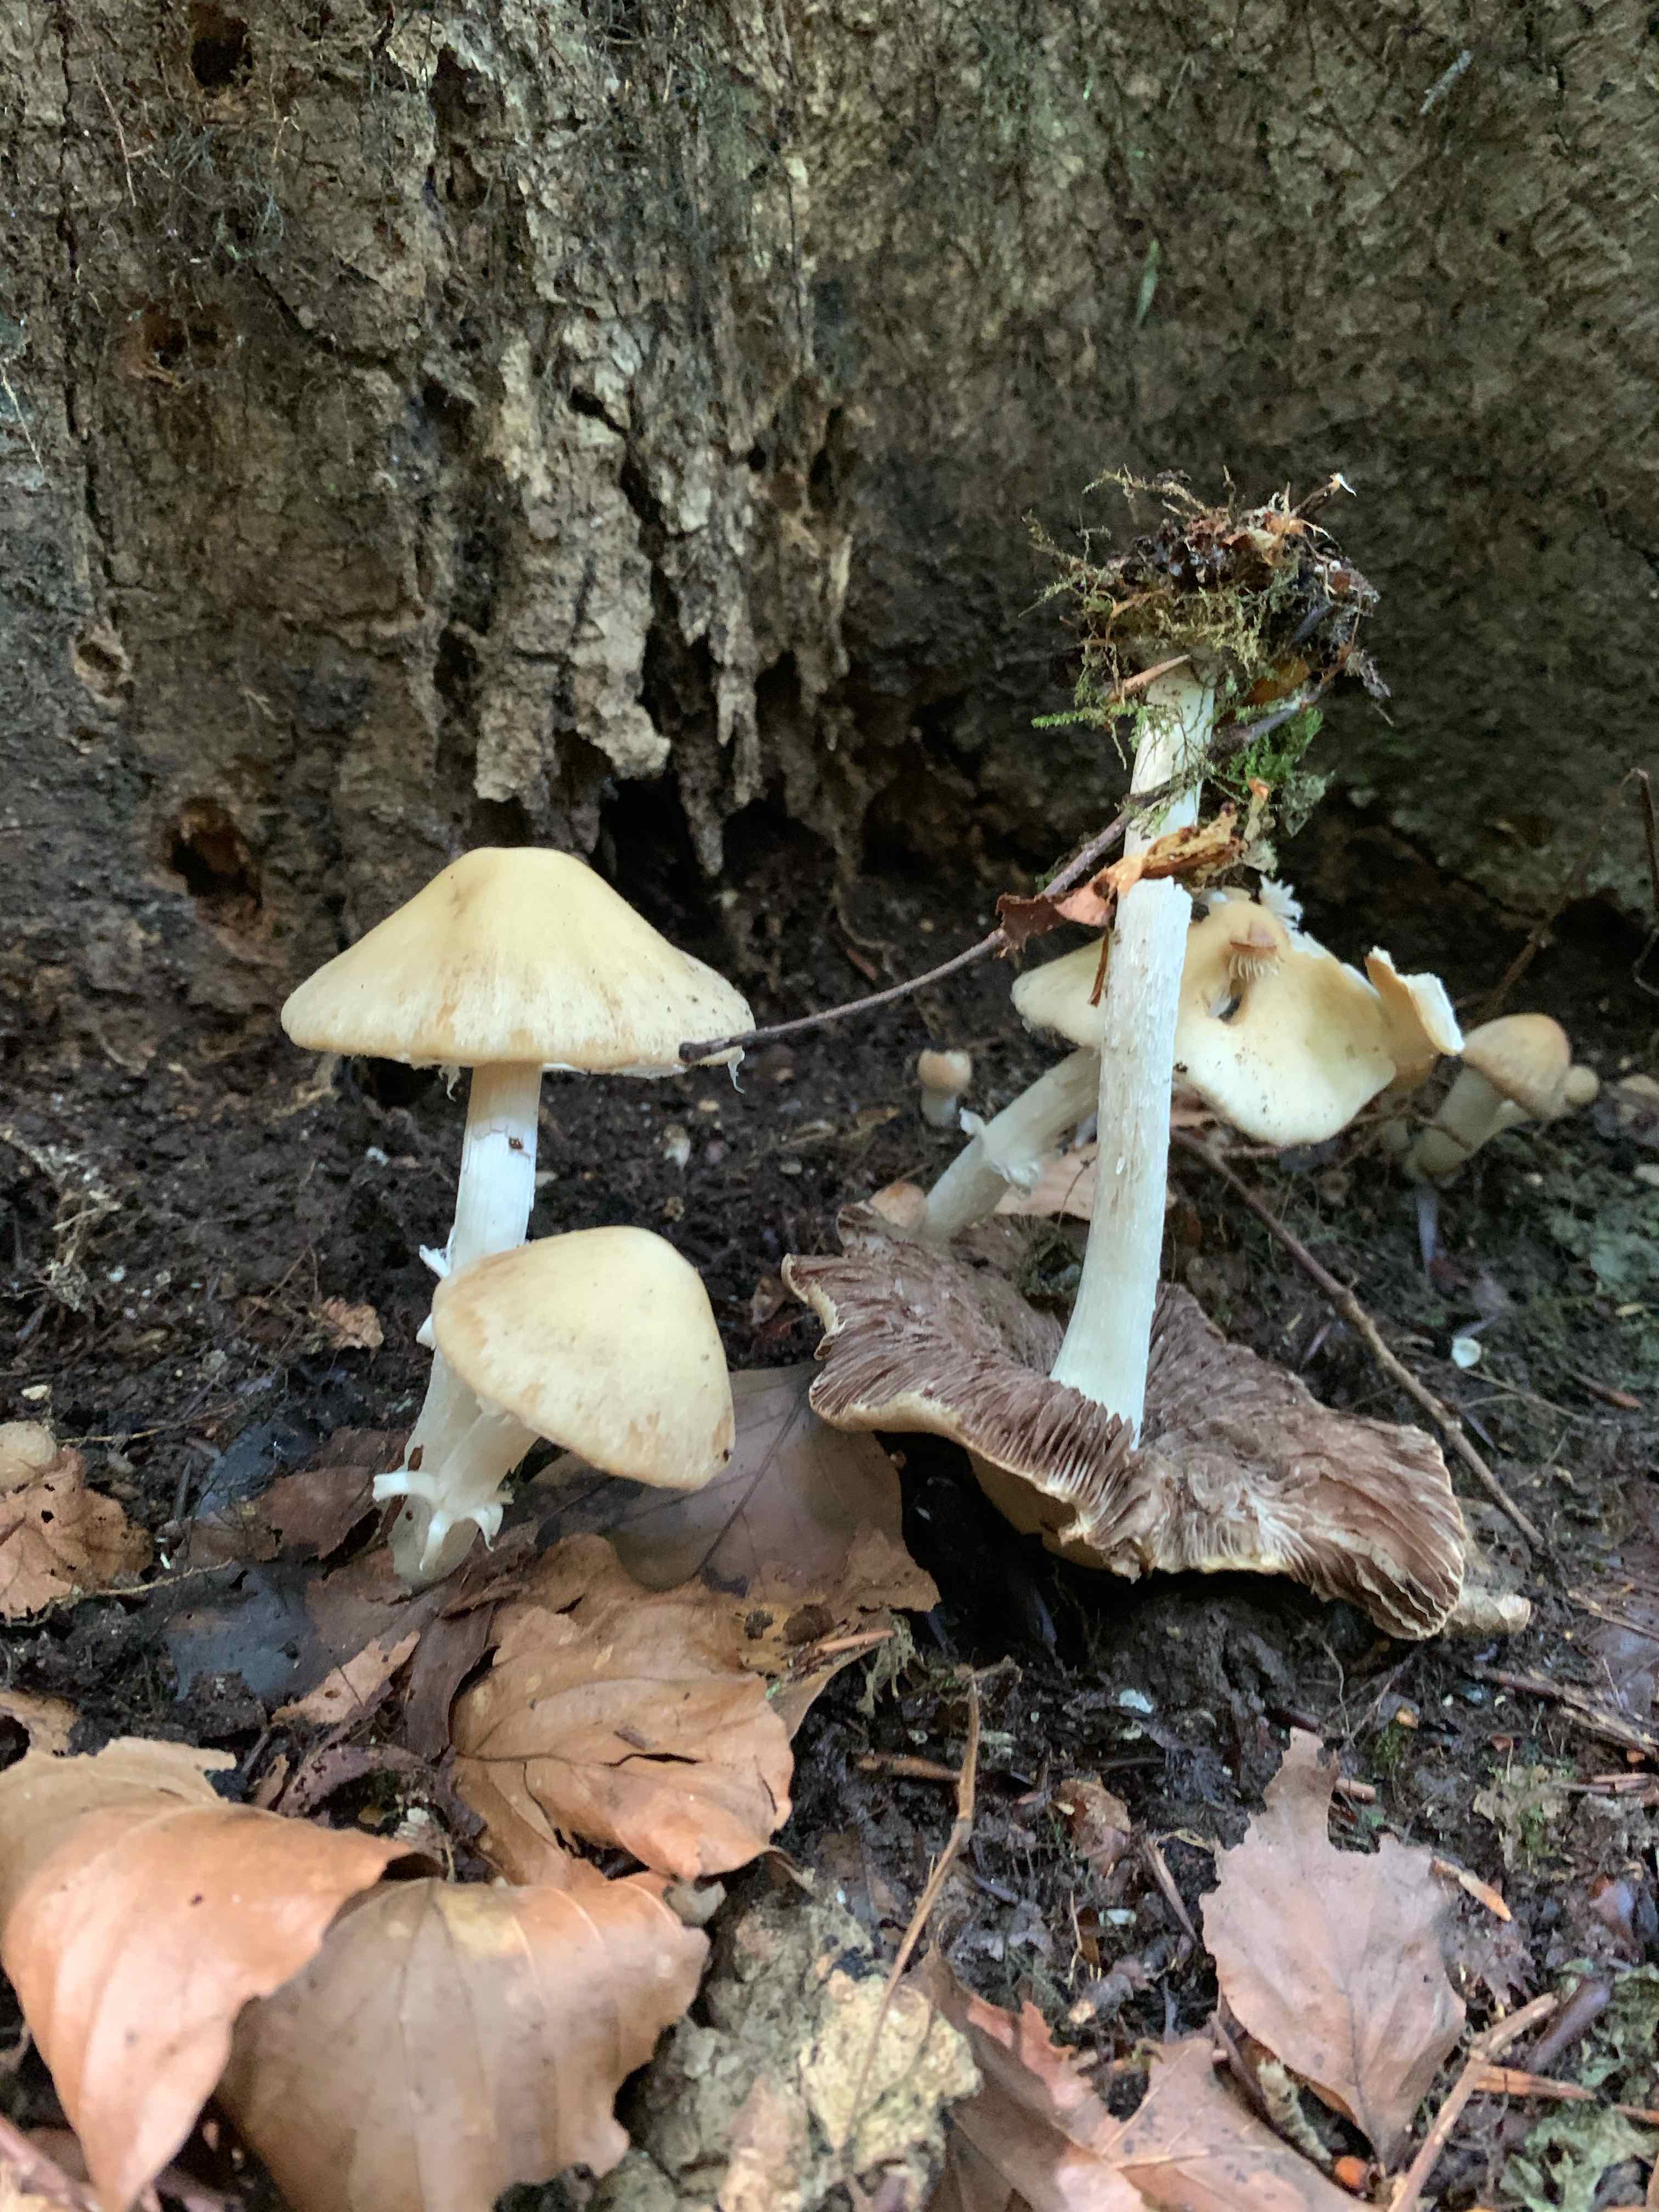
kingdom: Fungi
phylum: Basidiomycota
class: Agaricomycetes
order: Agaricales
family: Psathyrellaceae
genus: Candolleomyces
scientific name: Candolleomyces candolleanus
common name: Candolles mørkhat
